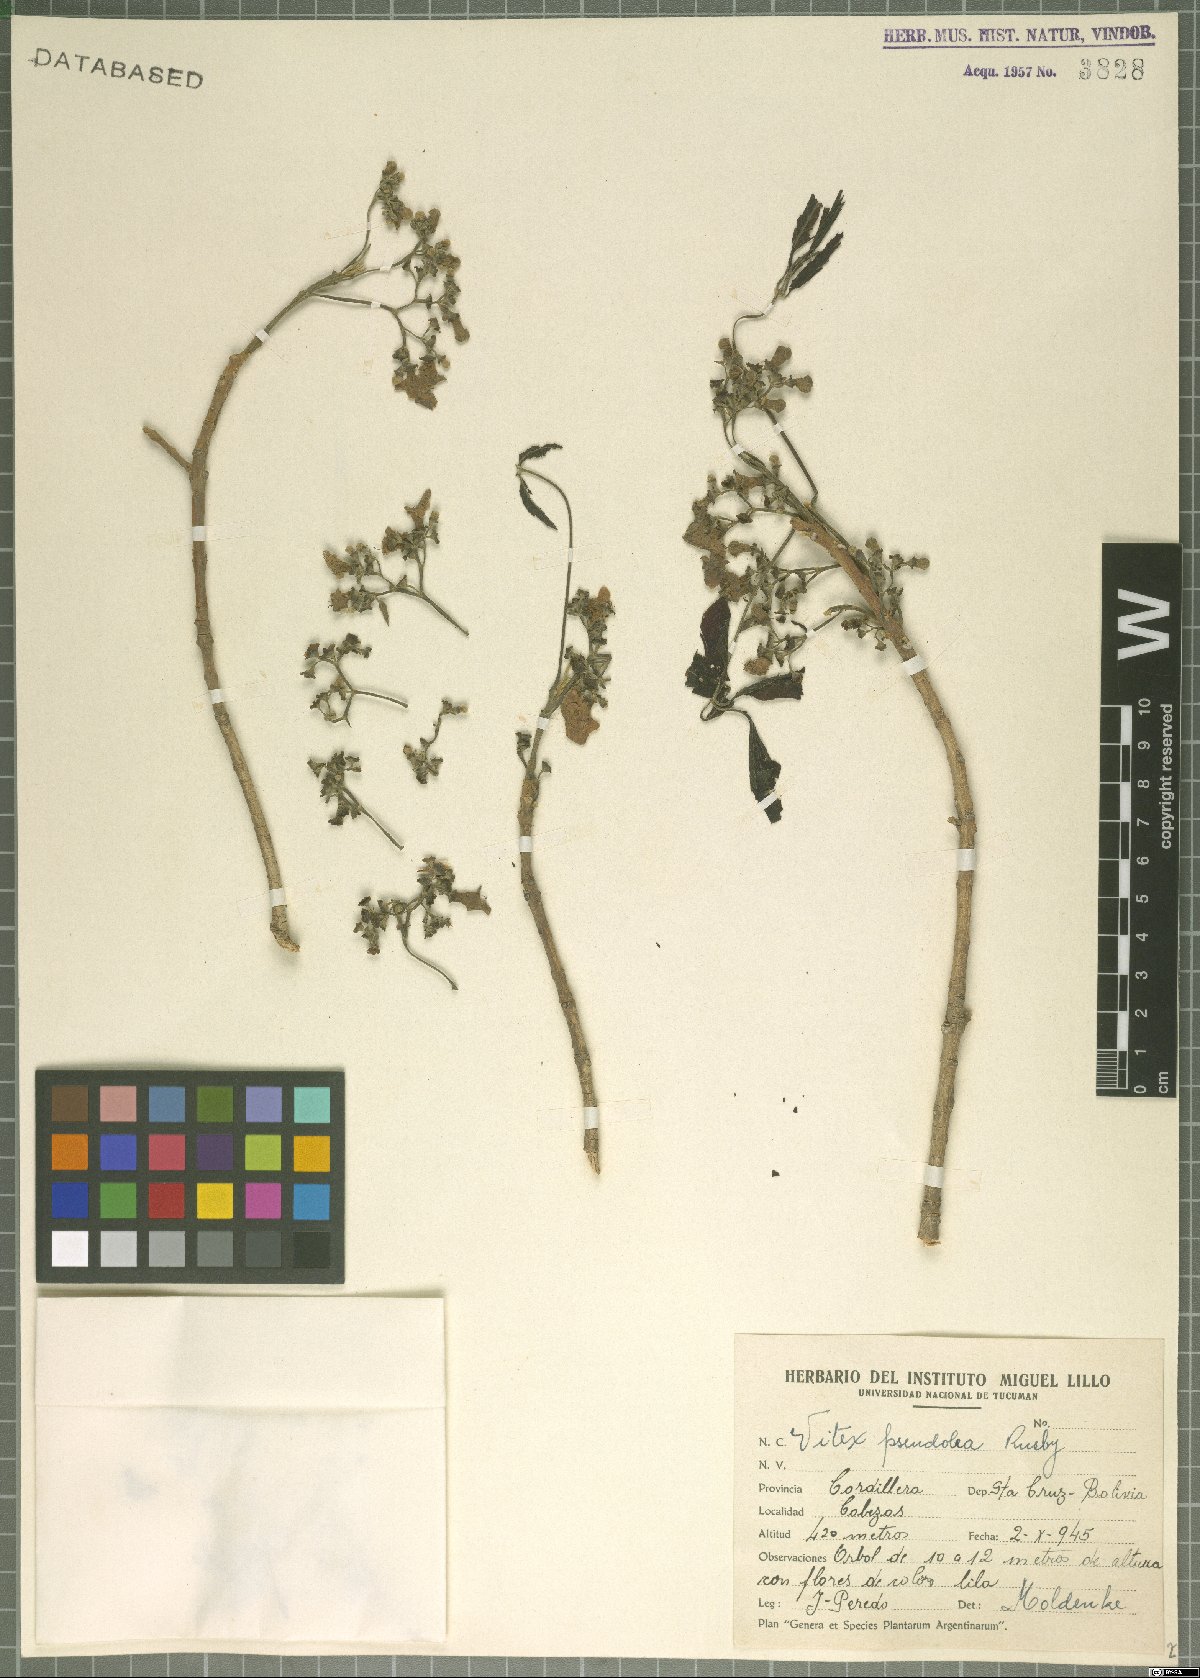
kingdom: Plantae
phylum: Tracheophyta
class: Magnoliopsida
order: Lamiales
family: Lamiaceae
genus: Vitex
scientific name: Vitex pseudolea
